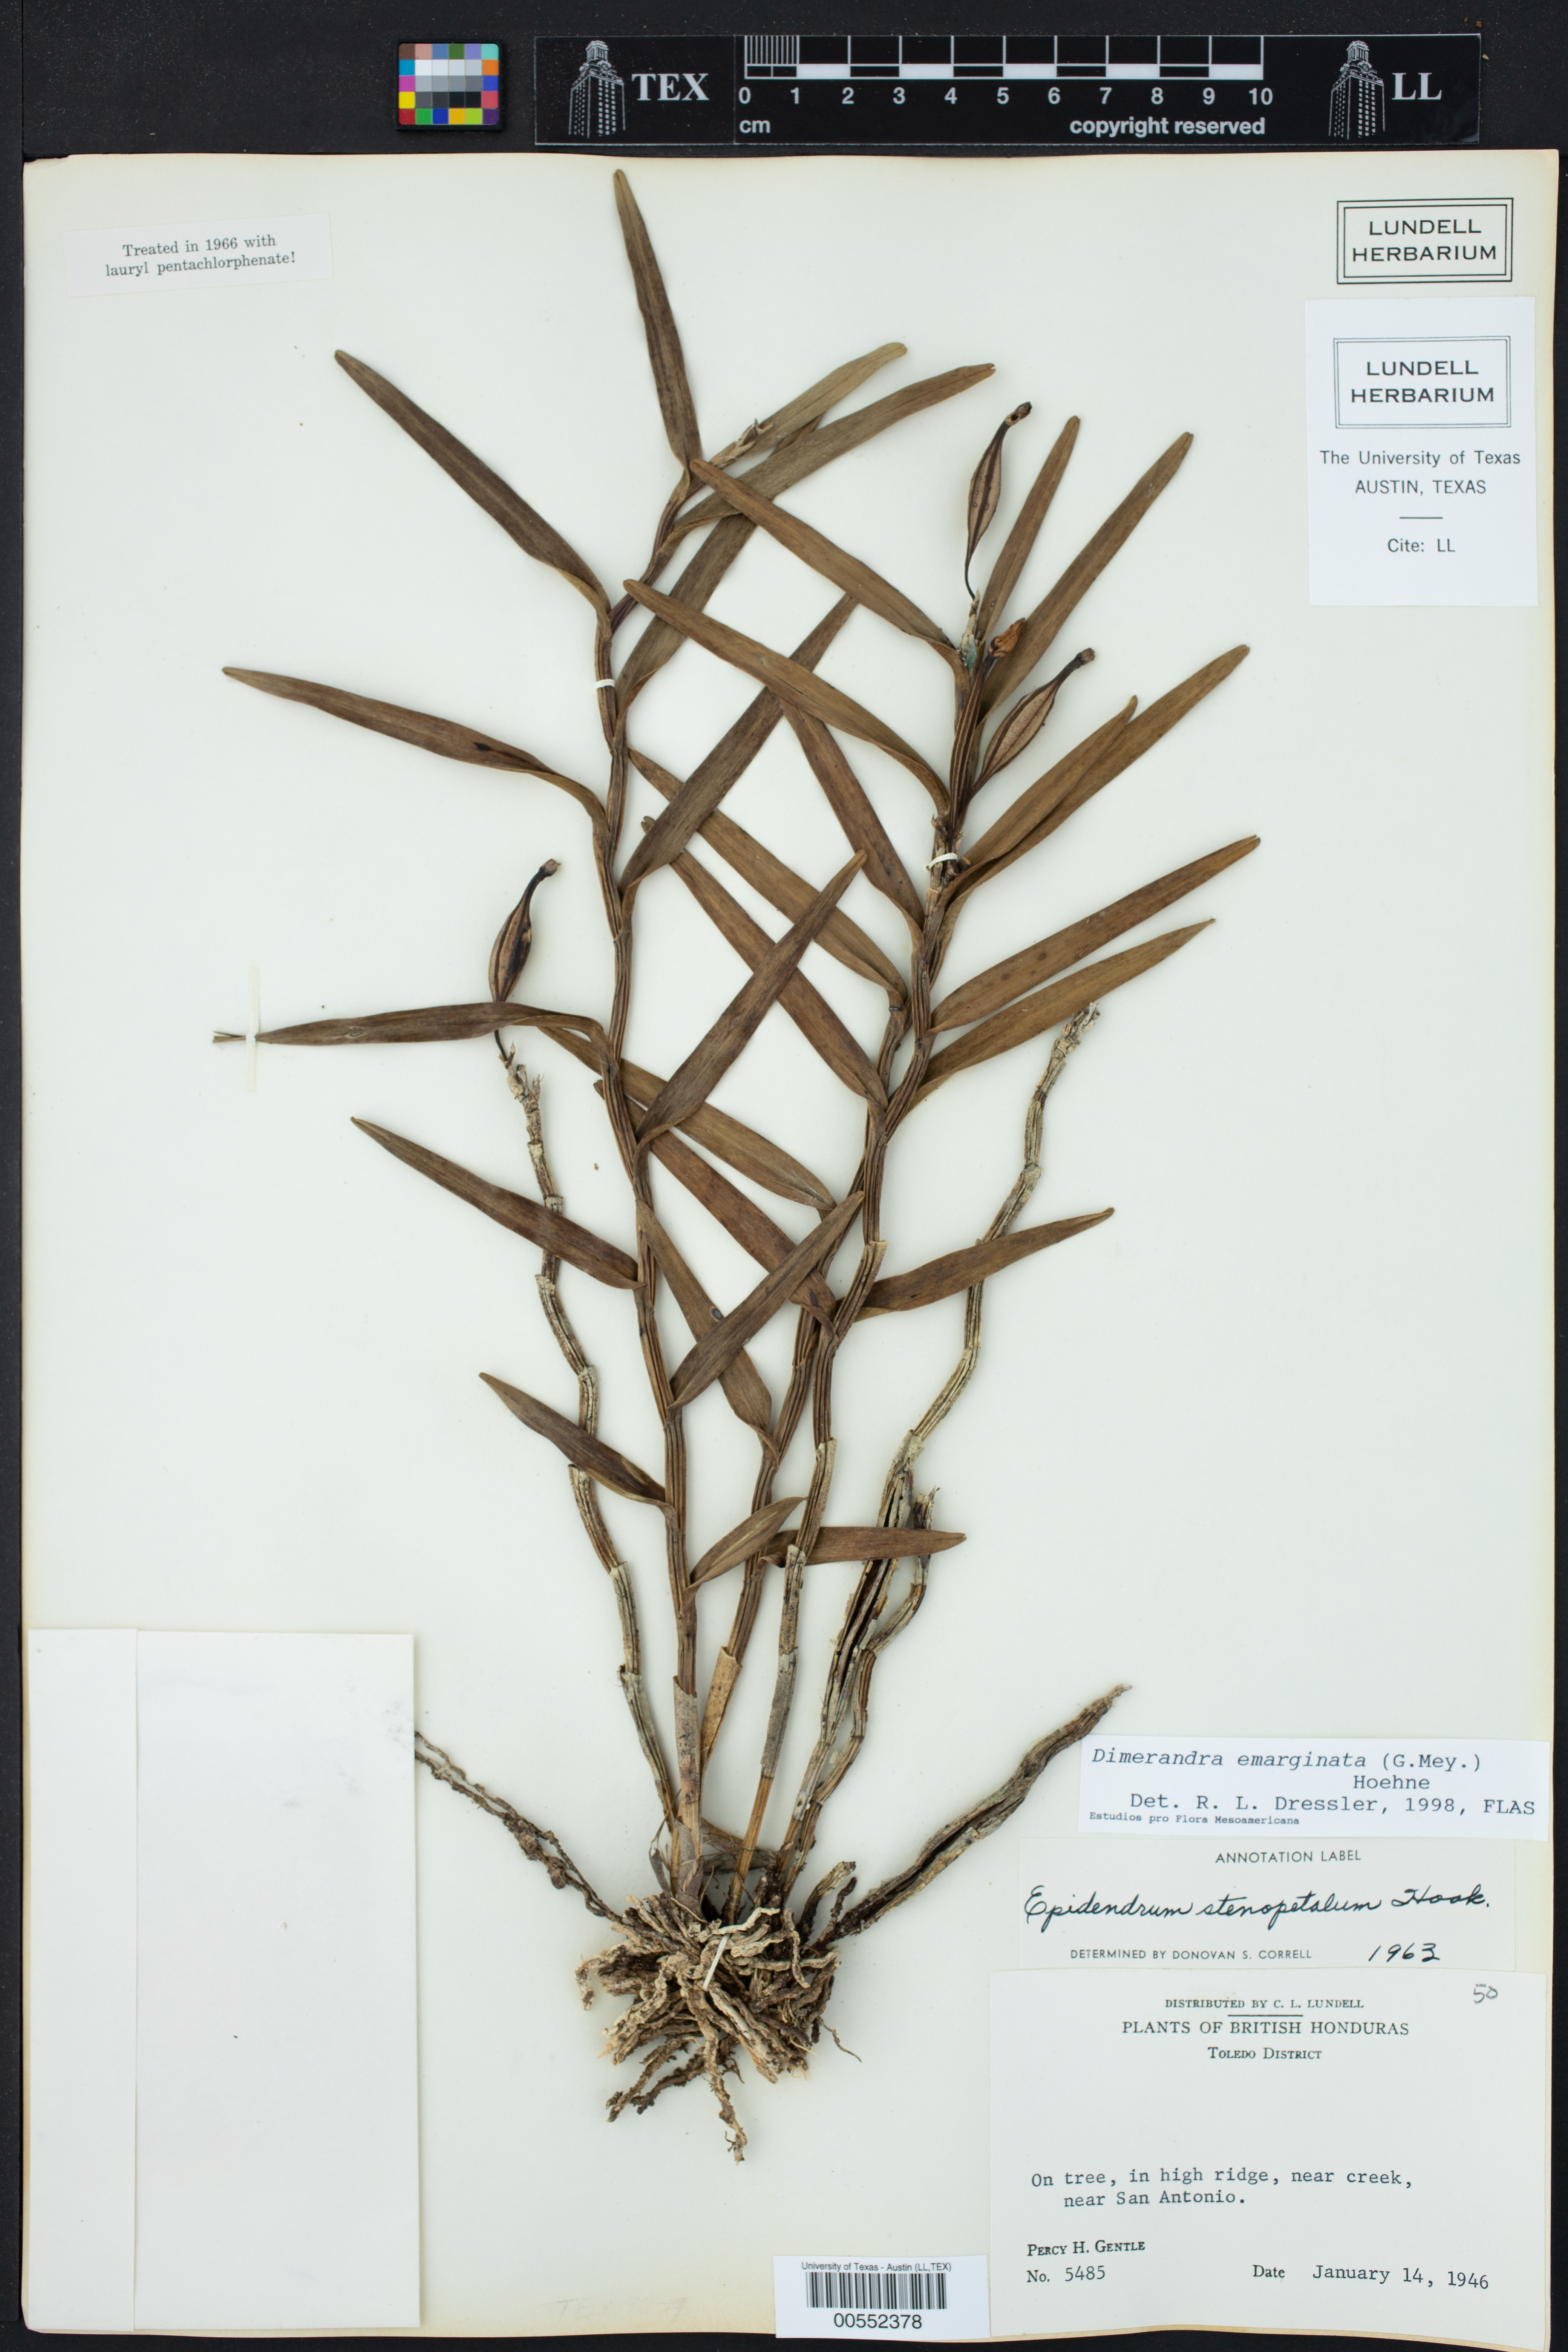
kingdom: Plantae
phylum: Tracheophyta
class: Liliopsida
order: Asparagales
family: Orchidaceae
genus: Dimerandra
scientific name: Dimerandra emarginata
